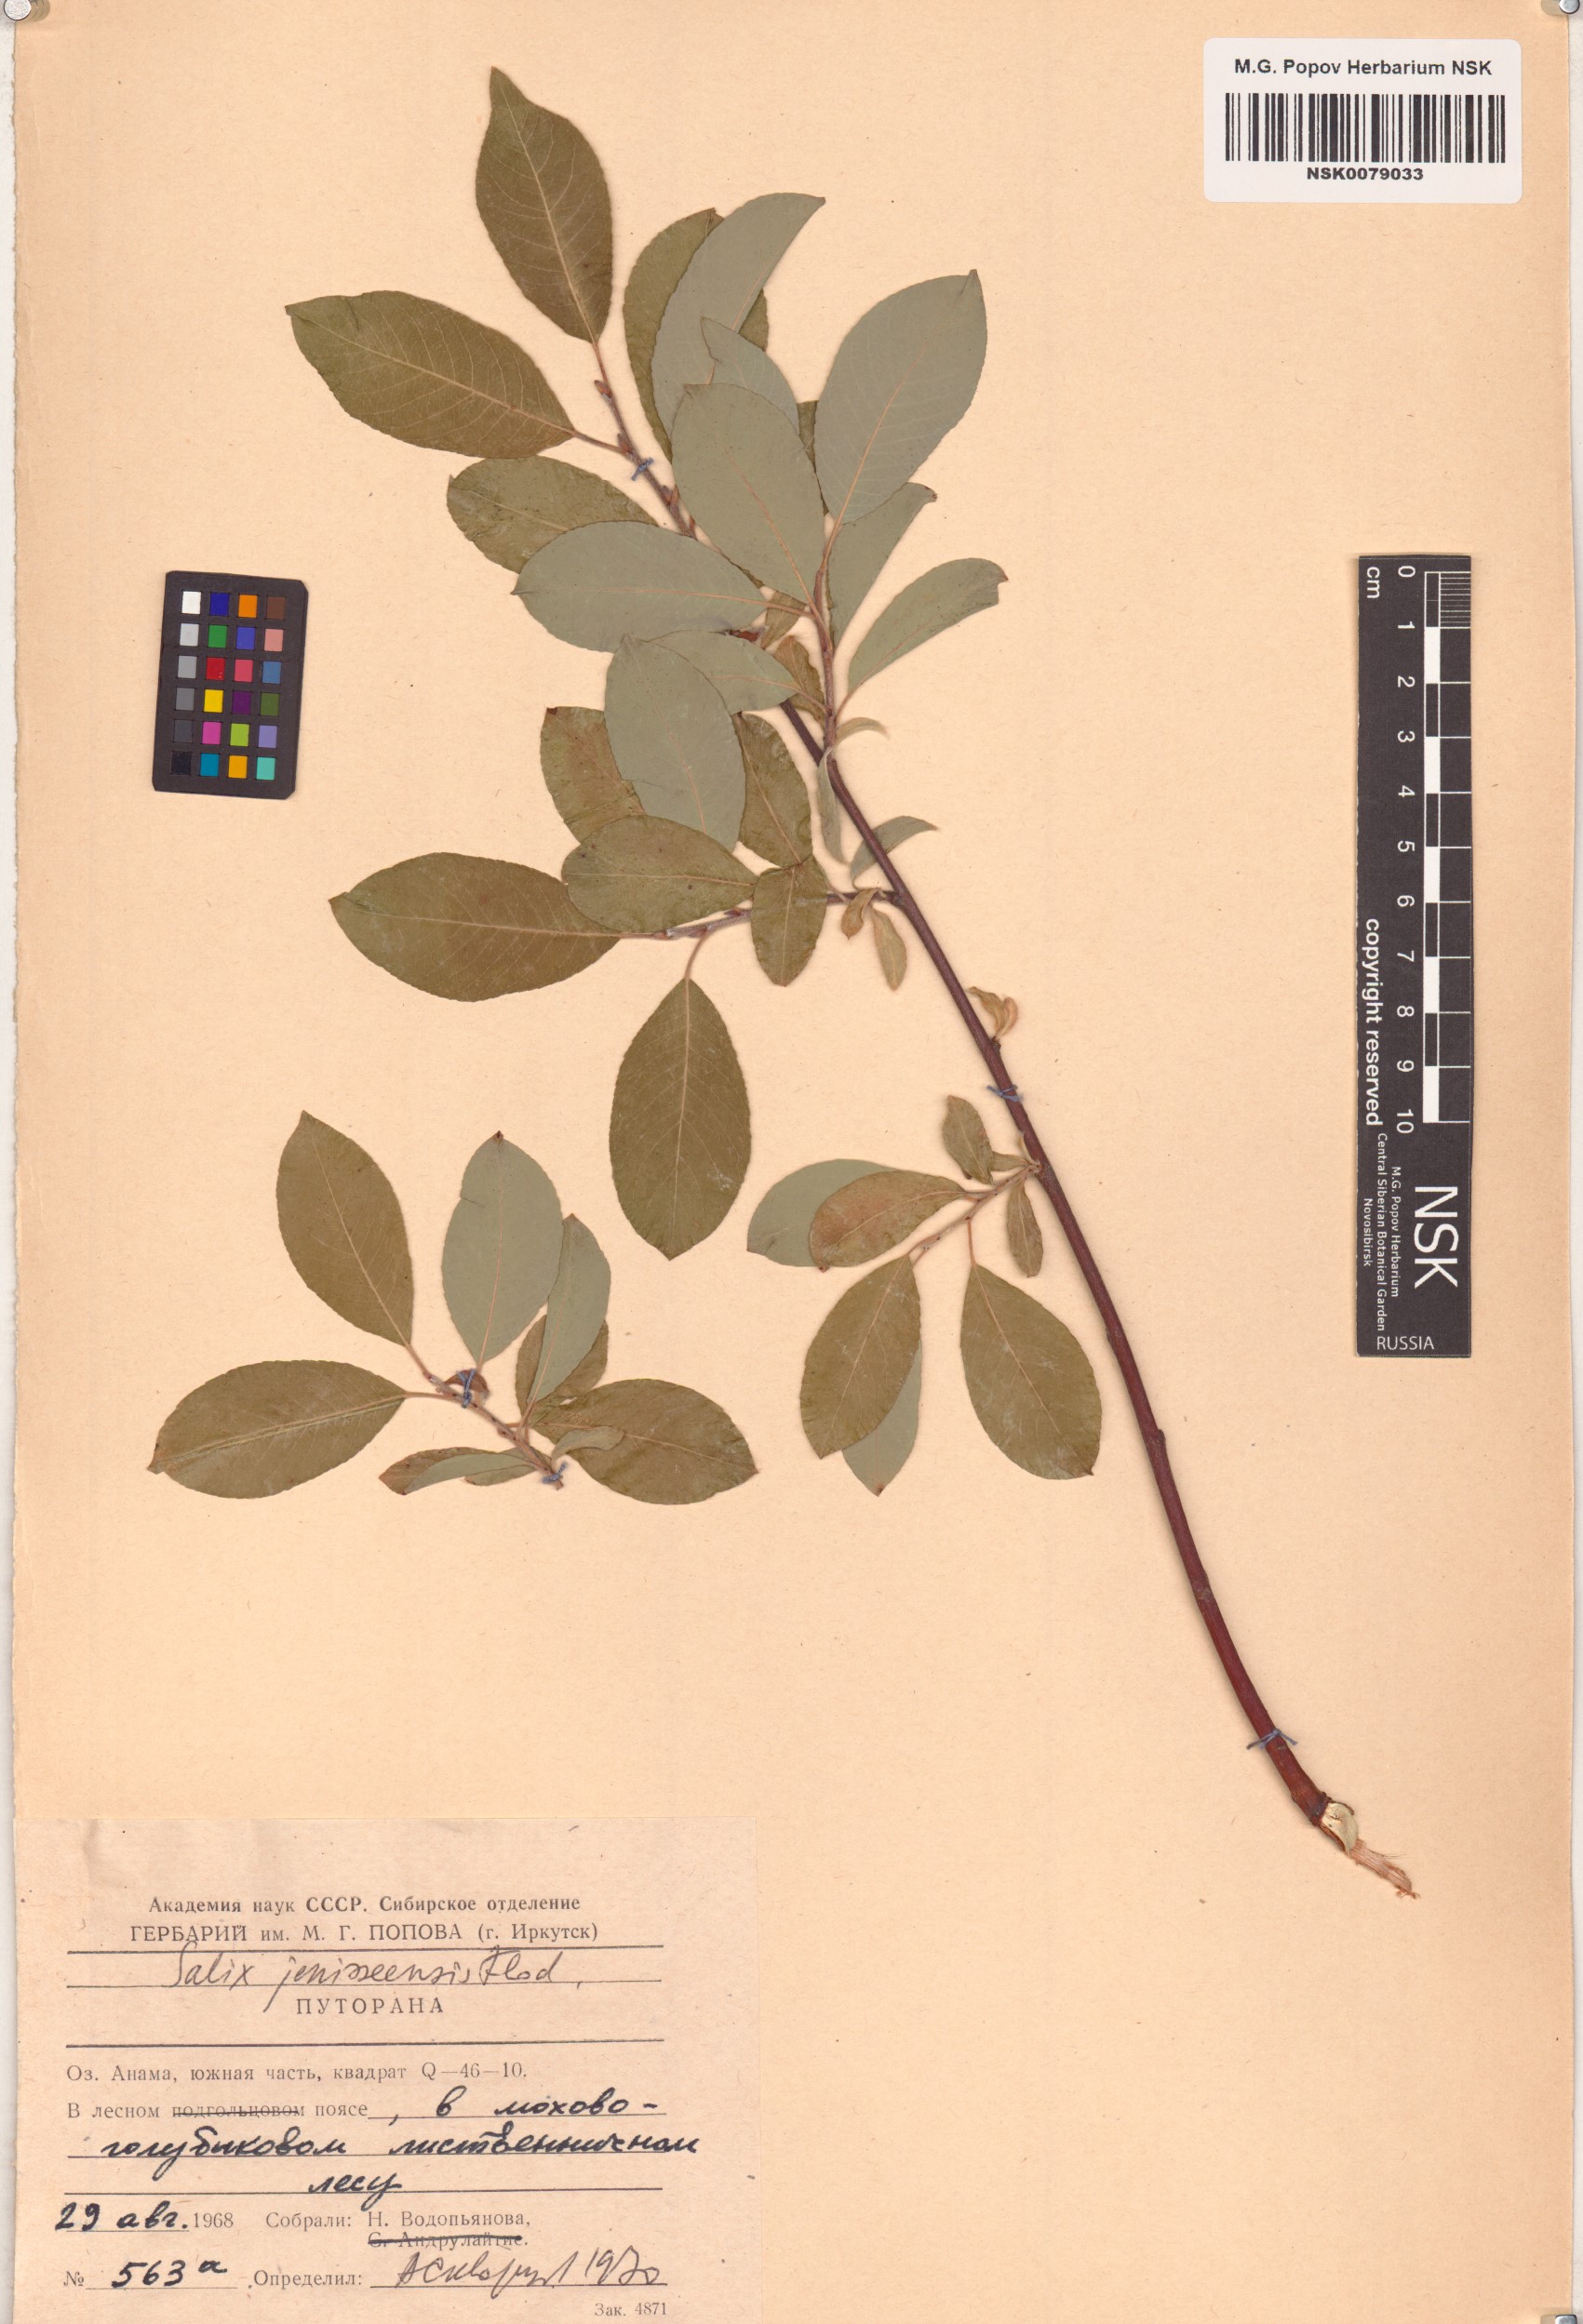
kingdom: Plantae
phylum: Tracheophyta
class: Magnoliopsida
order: Malpighiales
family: Salicaceae
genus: Salix
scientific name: Salix jenisseensis
